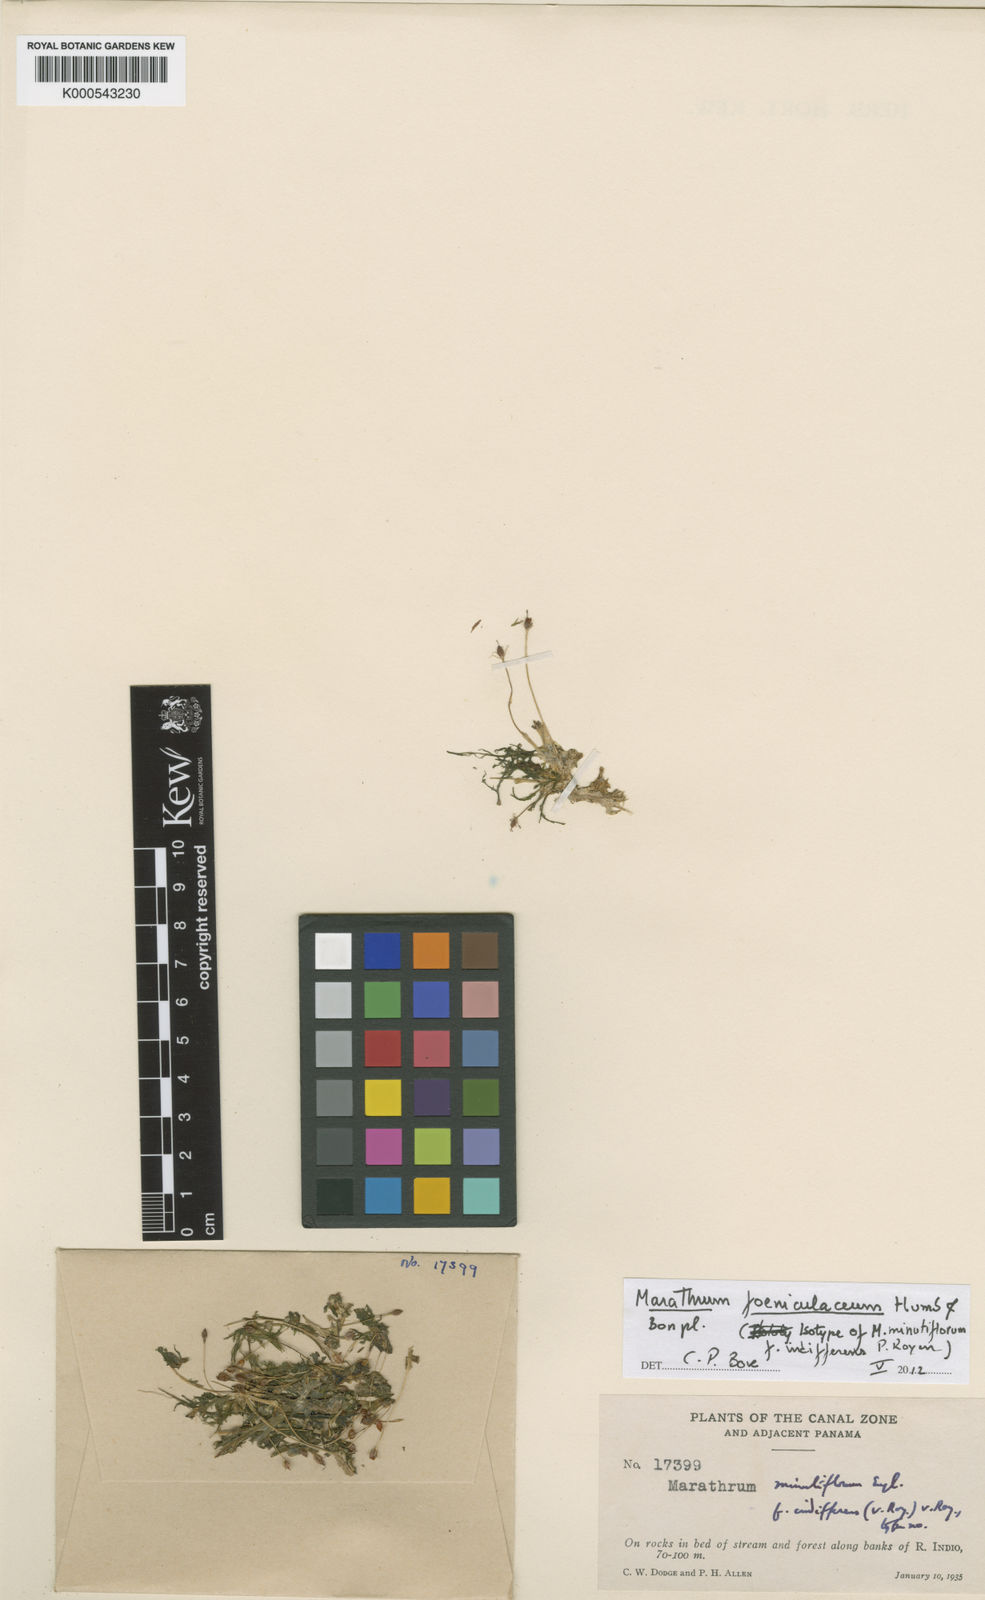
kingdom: Plantae
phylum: Tracheophyta
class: Magnoliopsida
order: Malpighiales
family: Podostemaceae
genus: Marathrum
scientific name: Marathrum foeniculaceum
